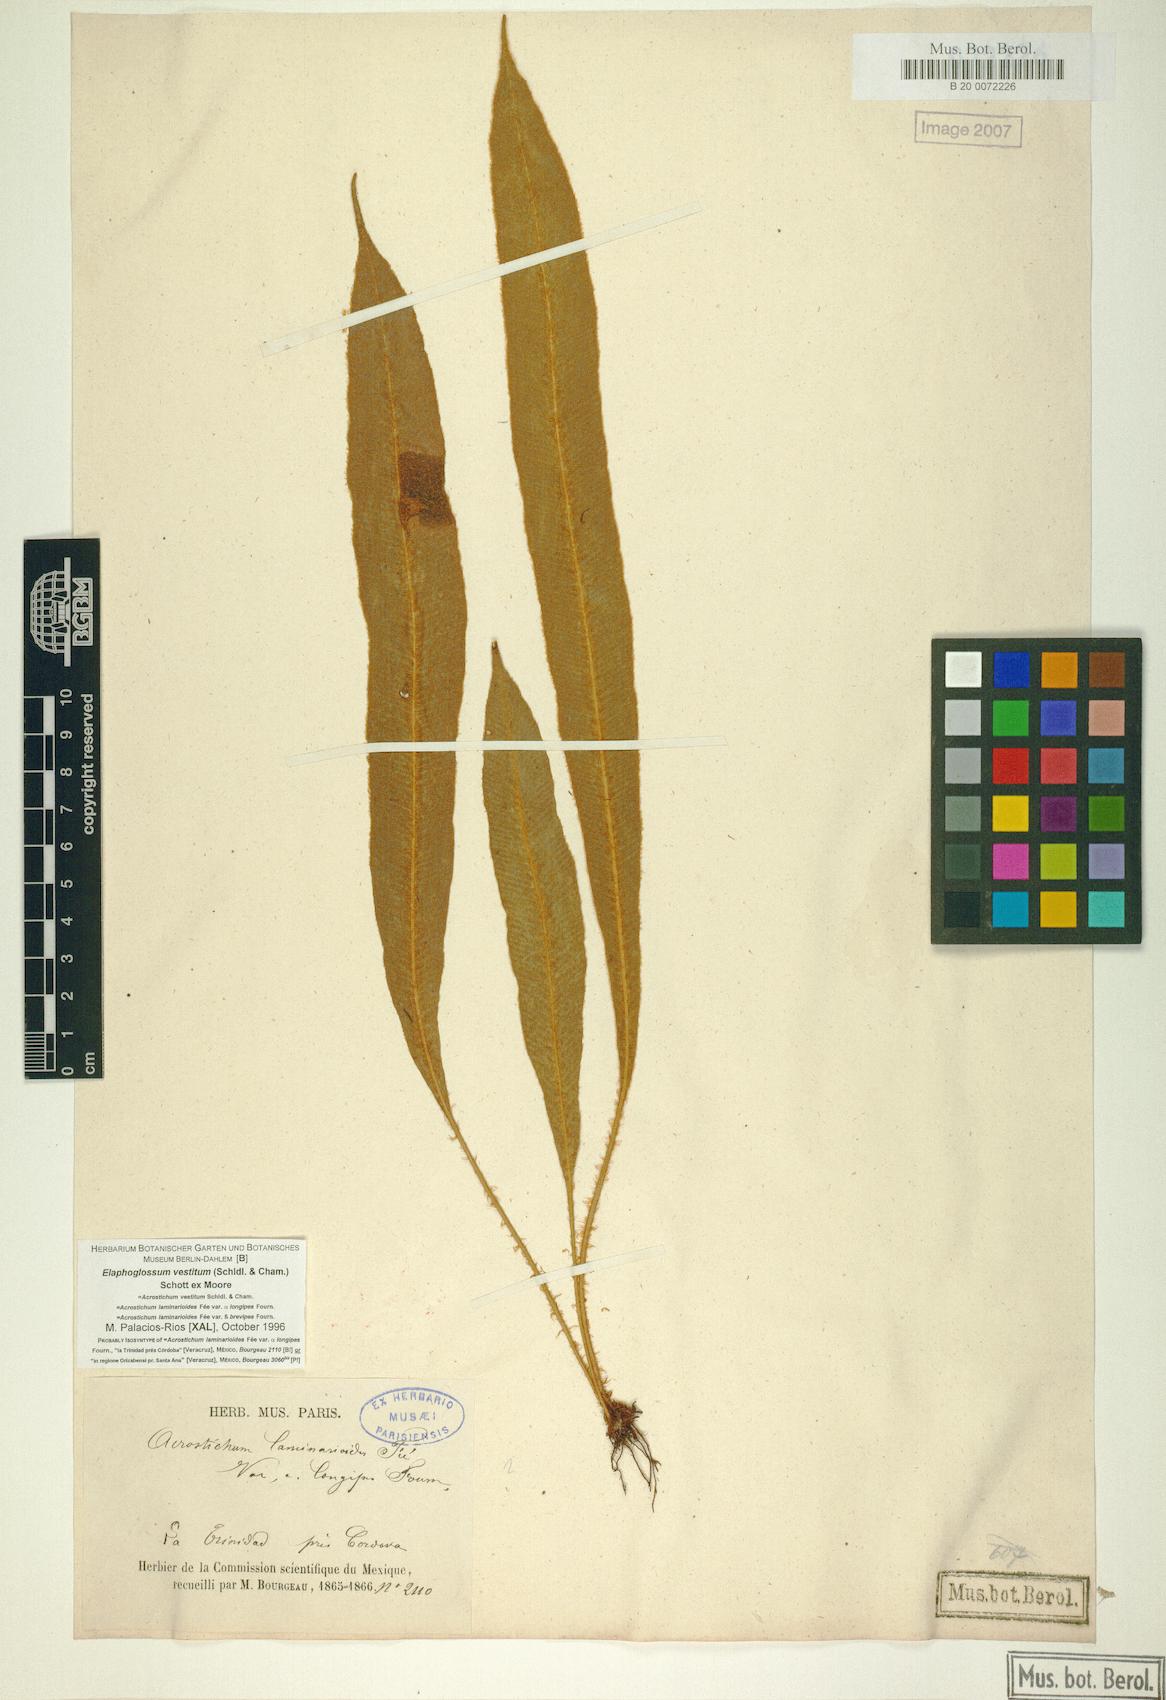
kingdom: Plantae
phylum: Tracheophyta
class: Polypodiopsida
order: Polypodiales
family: Dryopteridaceae
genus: Elaphoglossum
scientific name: Elaphoglossum vestitum
